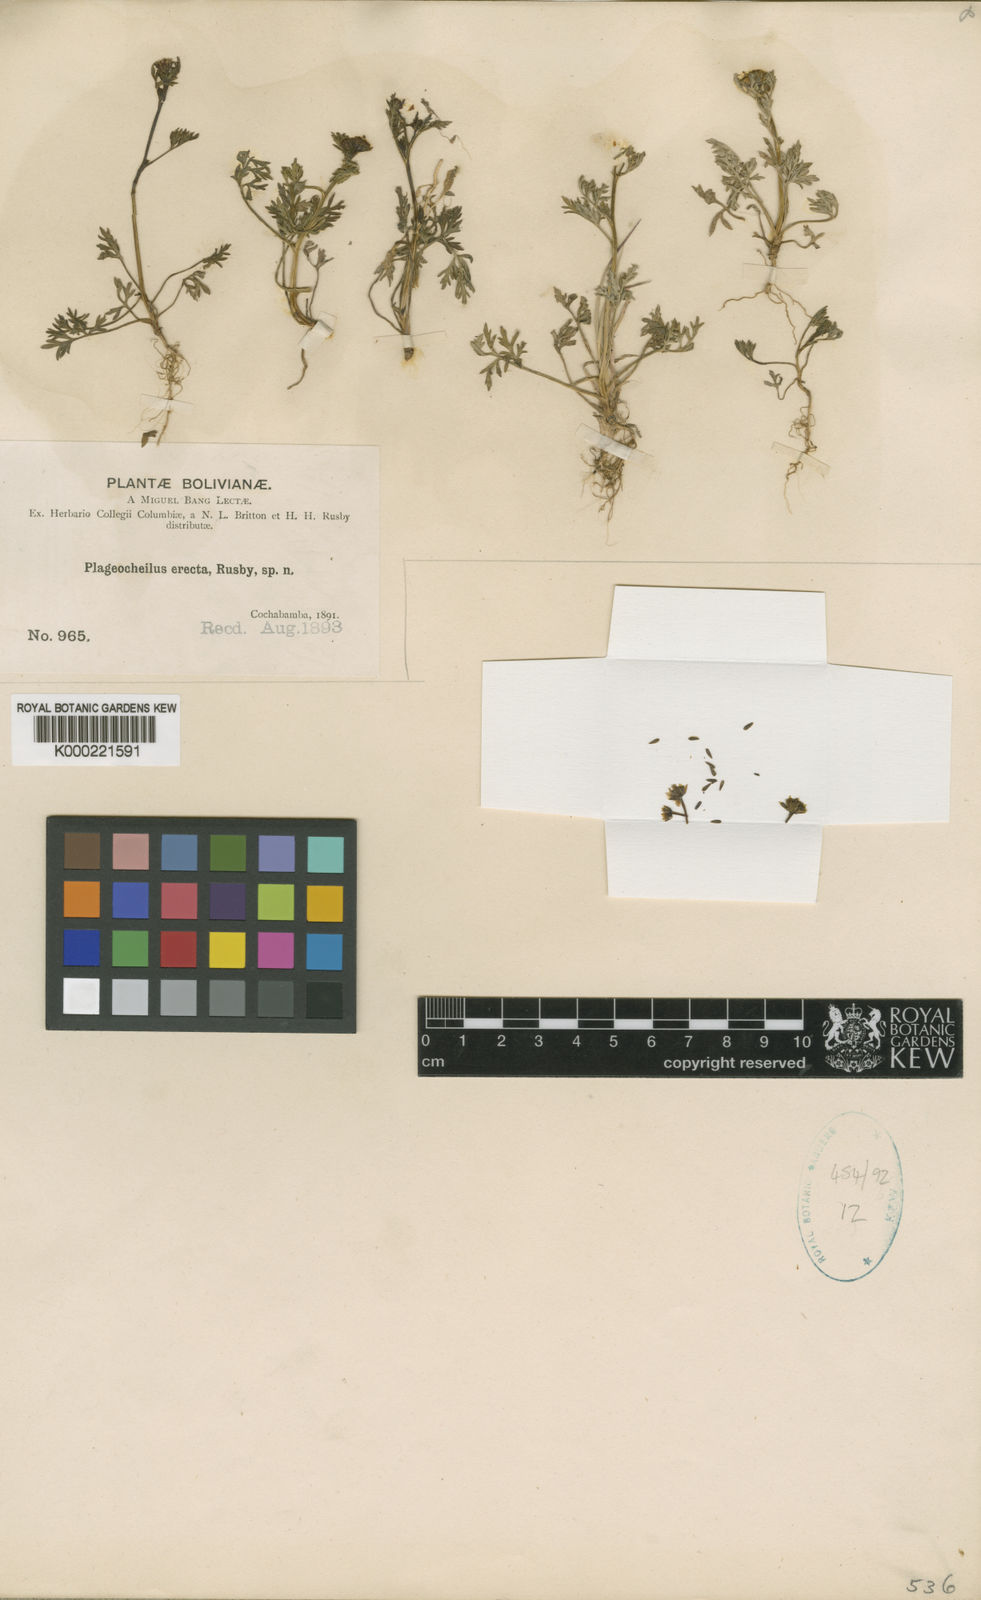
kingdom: Plantae
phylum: Tracheophyta
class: Magnoliopsida
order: Asterales
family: Asteraceae
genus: Chrysanthellum
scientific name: Chrysanthellum indicum
